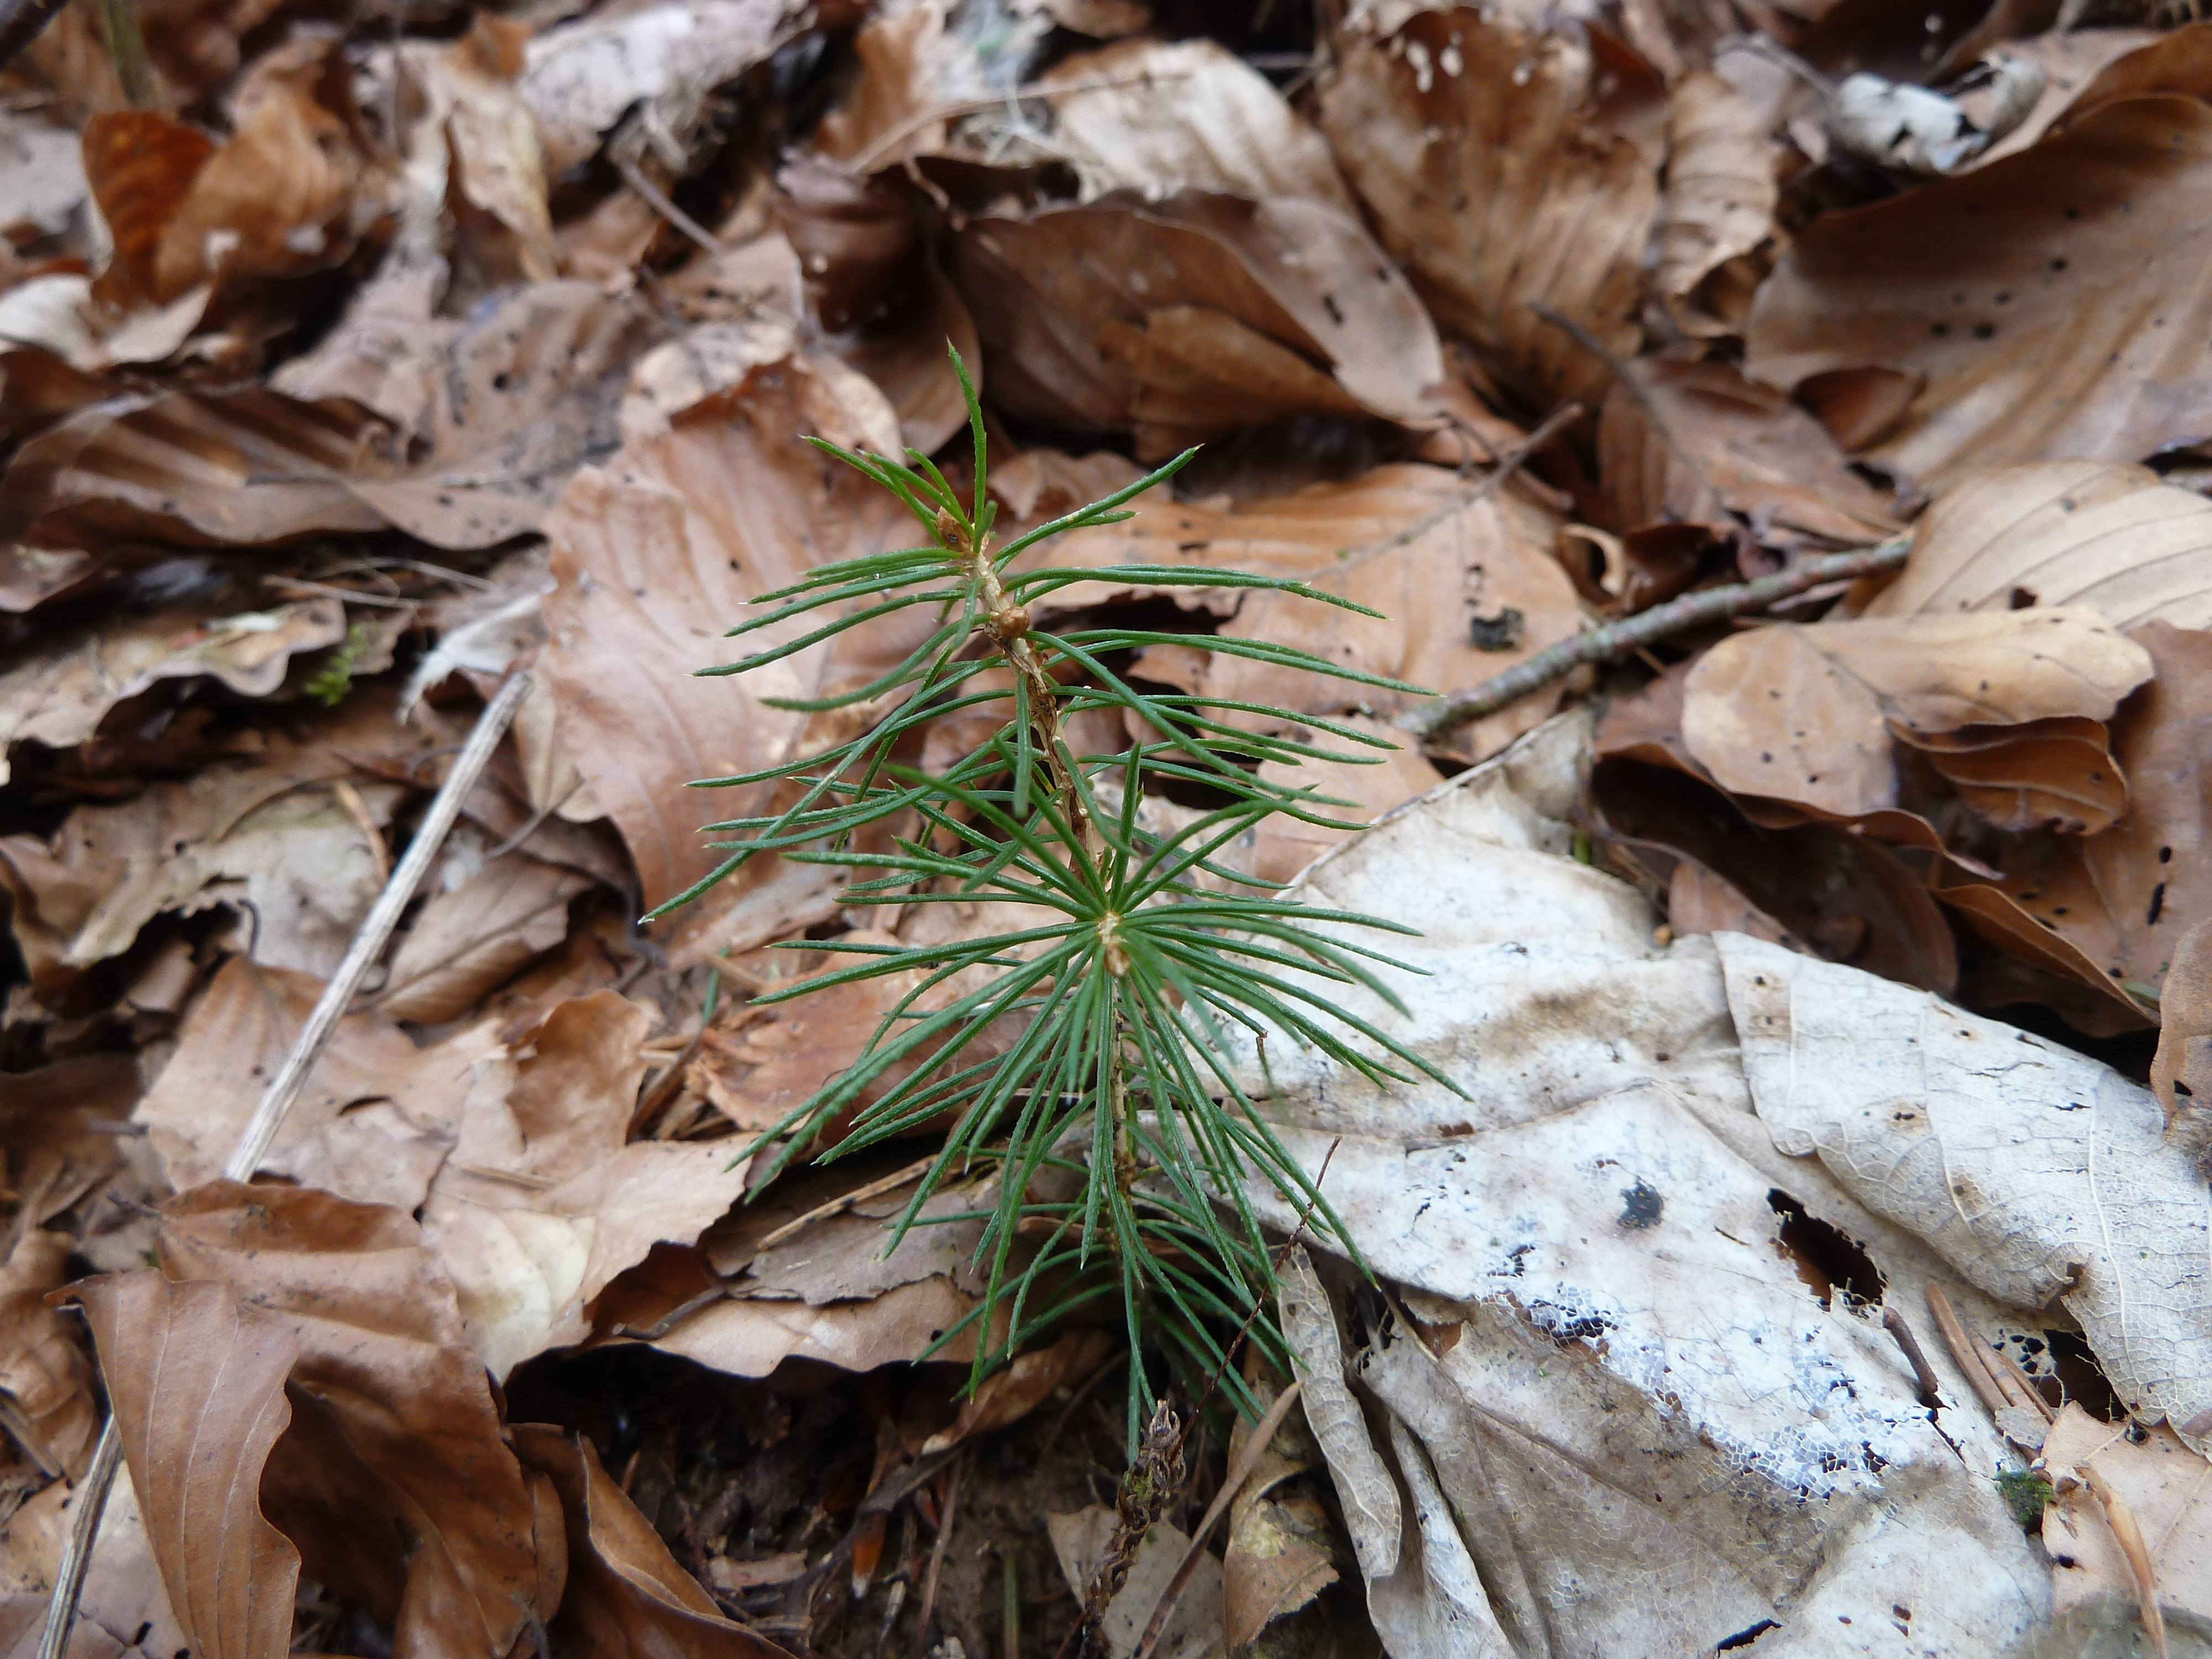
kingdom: Plantae
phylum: Tracheophyta
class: Pinopsida
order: Pinales
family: Pinaceae
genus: Picea
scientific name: Picea abies
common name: Norway spruce
